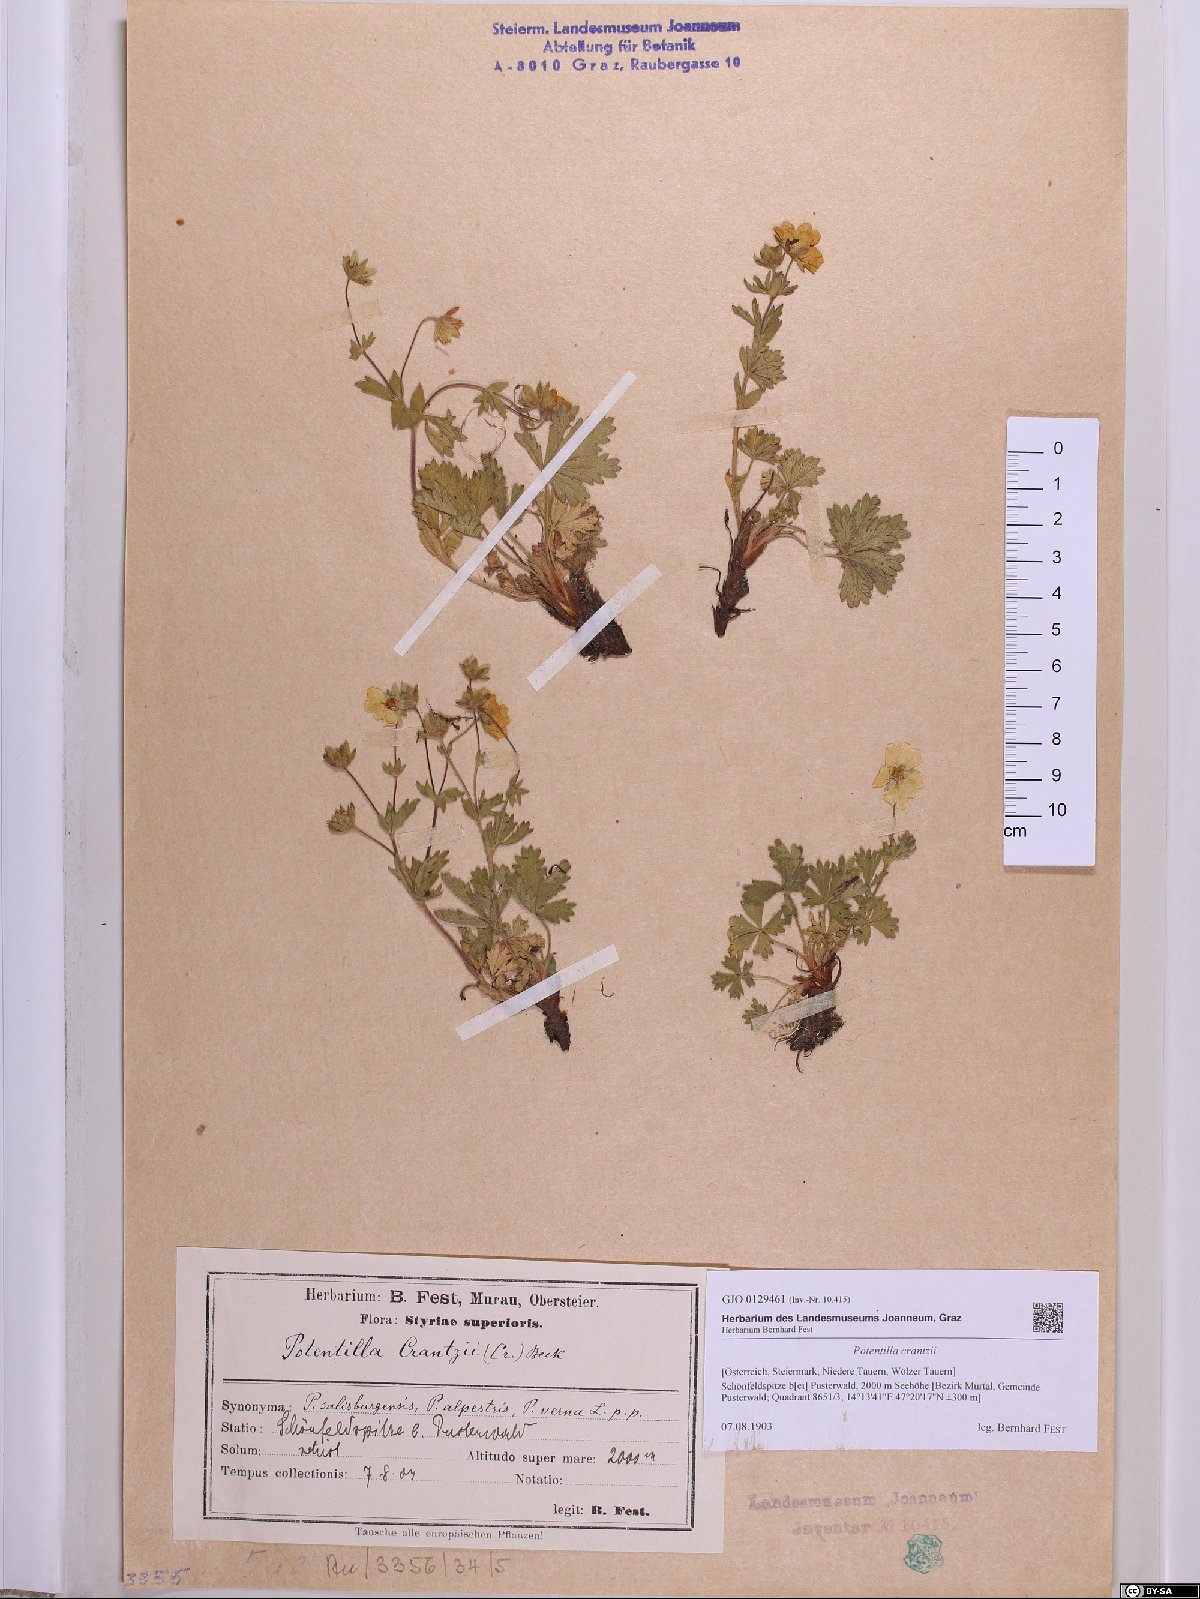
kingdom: Plantae
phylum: Tracheophyta
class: Magnoliopsida
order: Rosales
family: Rosaceae
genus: Potentilla
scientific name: Potentilla crantzii
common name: Alpine cinquefoil
